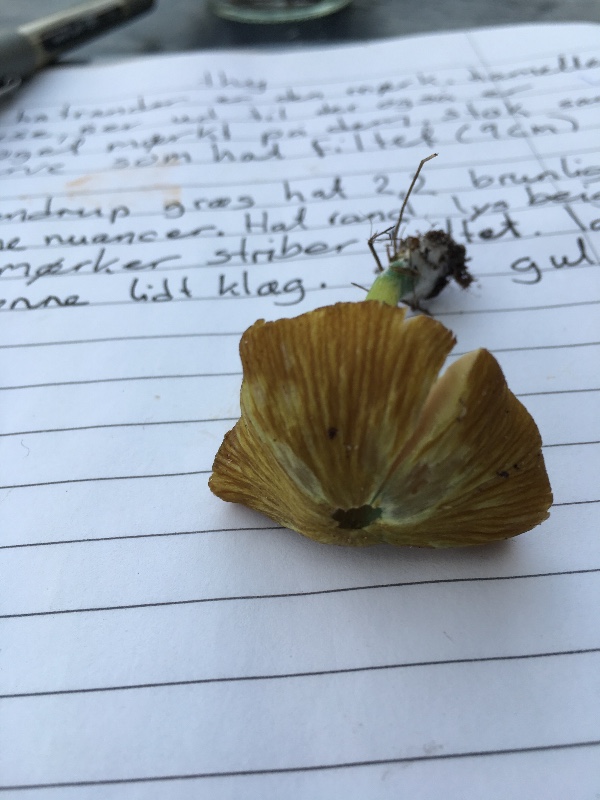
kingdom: Fungi
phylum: Basidiomycota
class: Agaricomycetes
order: Agaricales
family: Entolomataceae
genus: Entoloma
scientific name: Entoloma incanum
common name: grøngul rødblad
